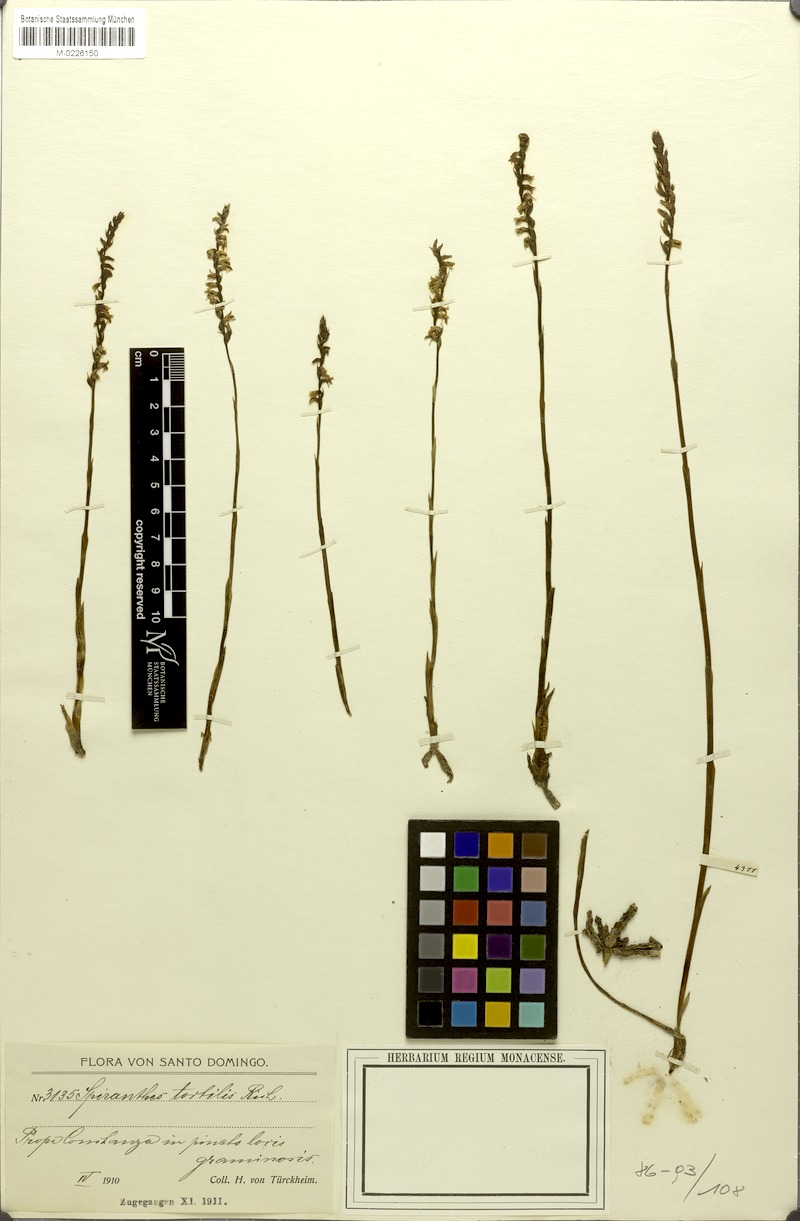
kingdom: Plantae
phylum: Tracheophyta
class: Liliopsida
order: Asparagales
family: Orchidaceae
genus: Spiranthes
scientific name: Spiranthes torta
